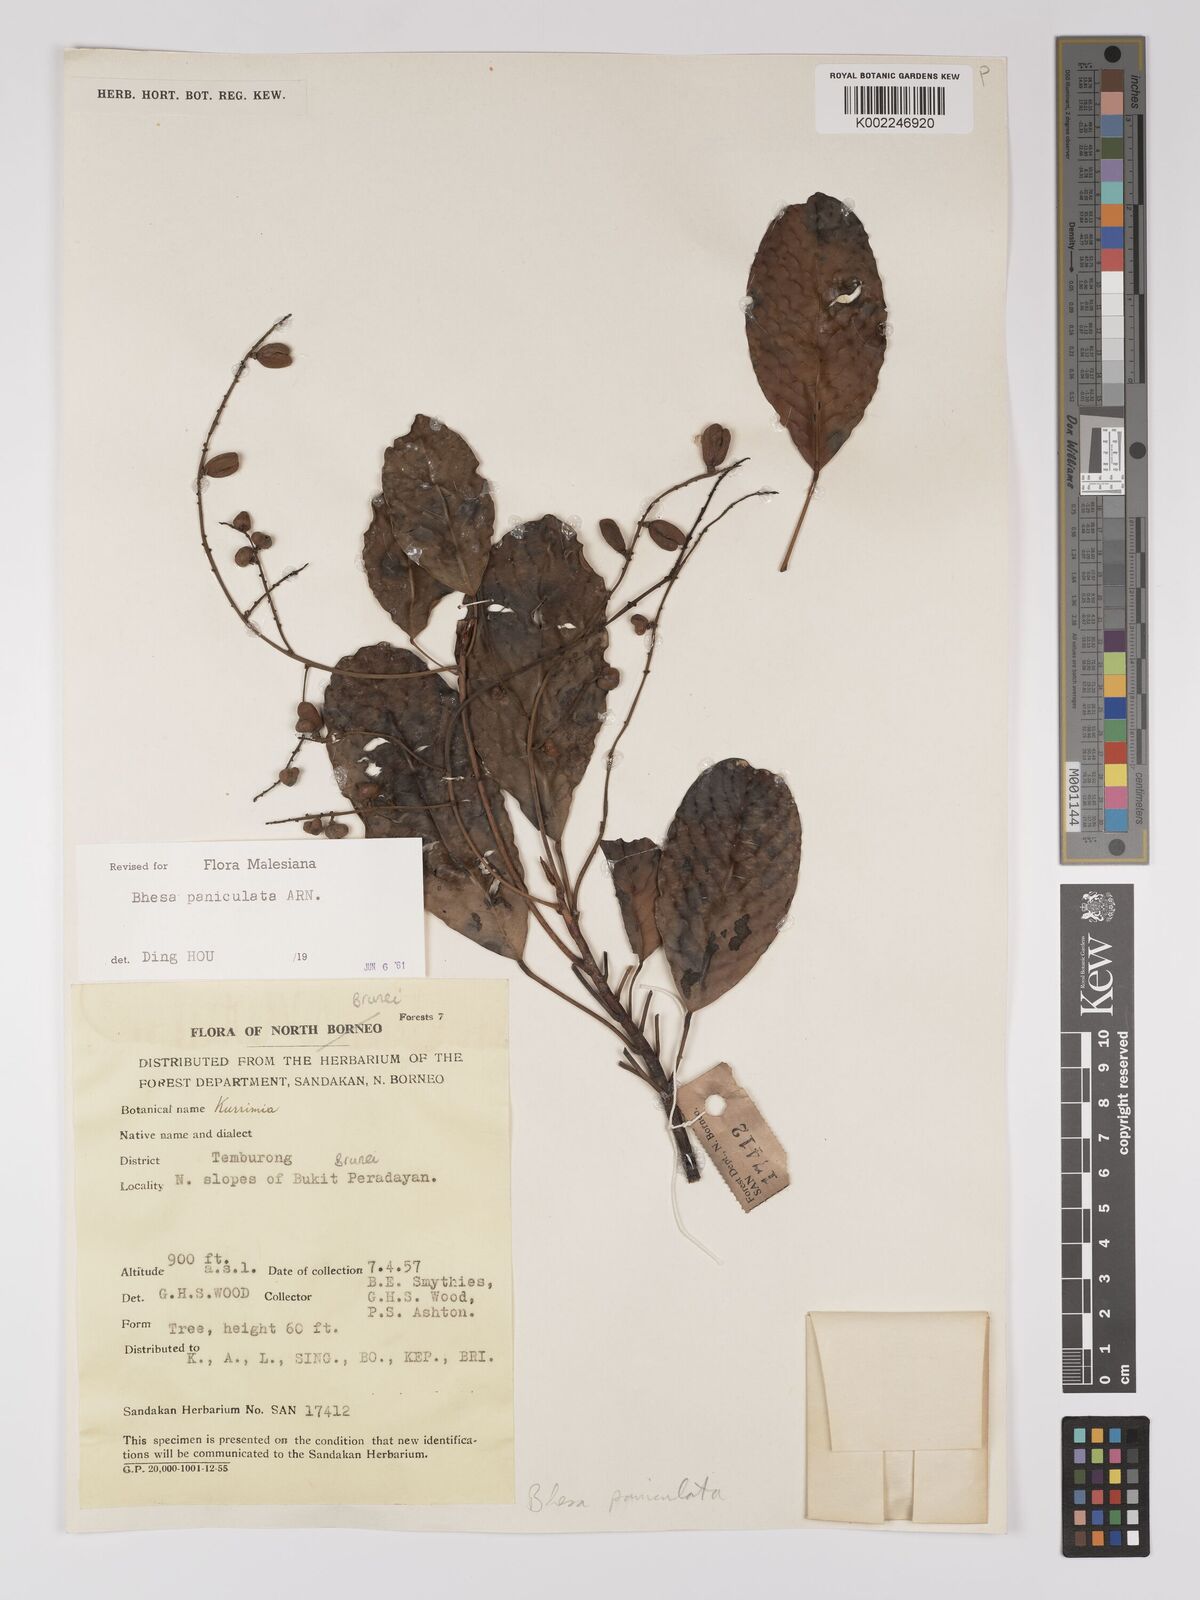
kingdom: Plantae
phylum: Tracheophyta
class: Magnoliopsida
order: Malpighiales
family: Centroplacaceae
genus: Bhesa
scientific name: Bhesa paniculata
